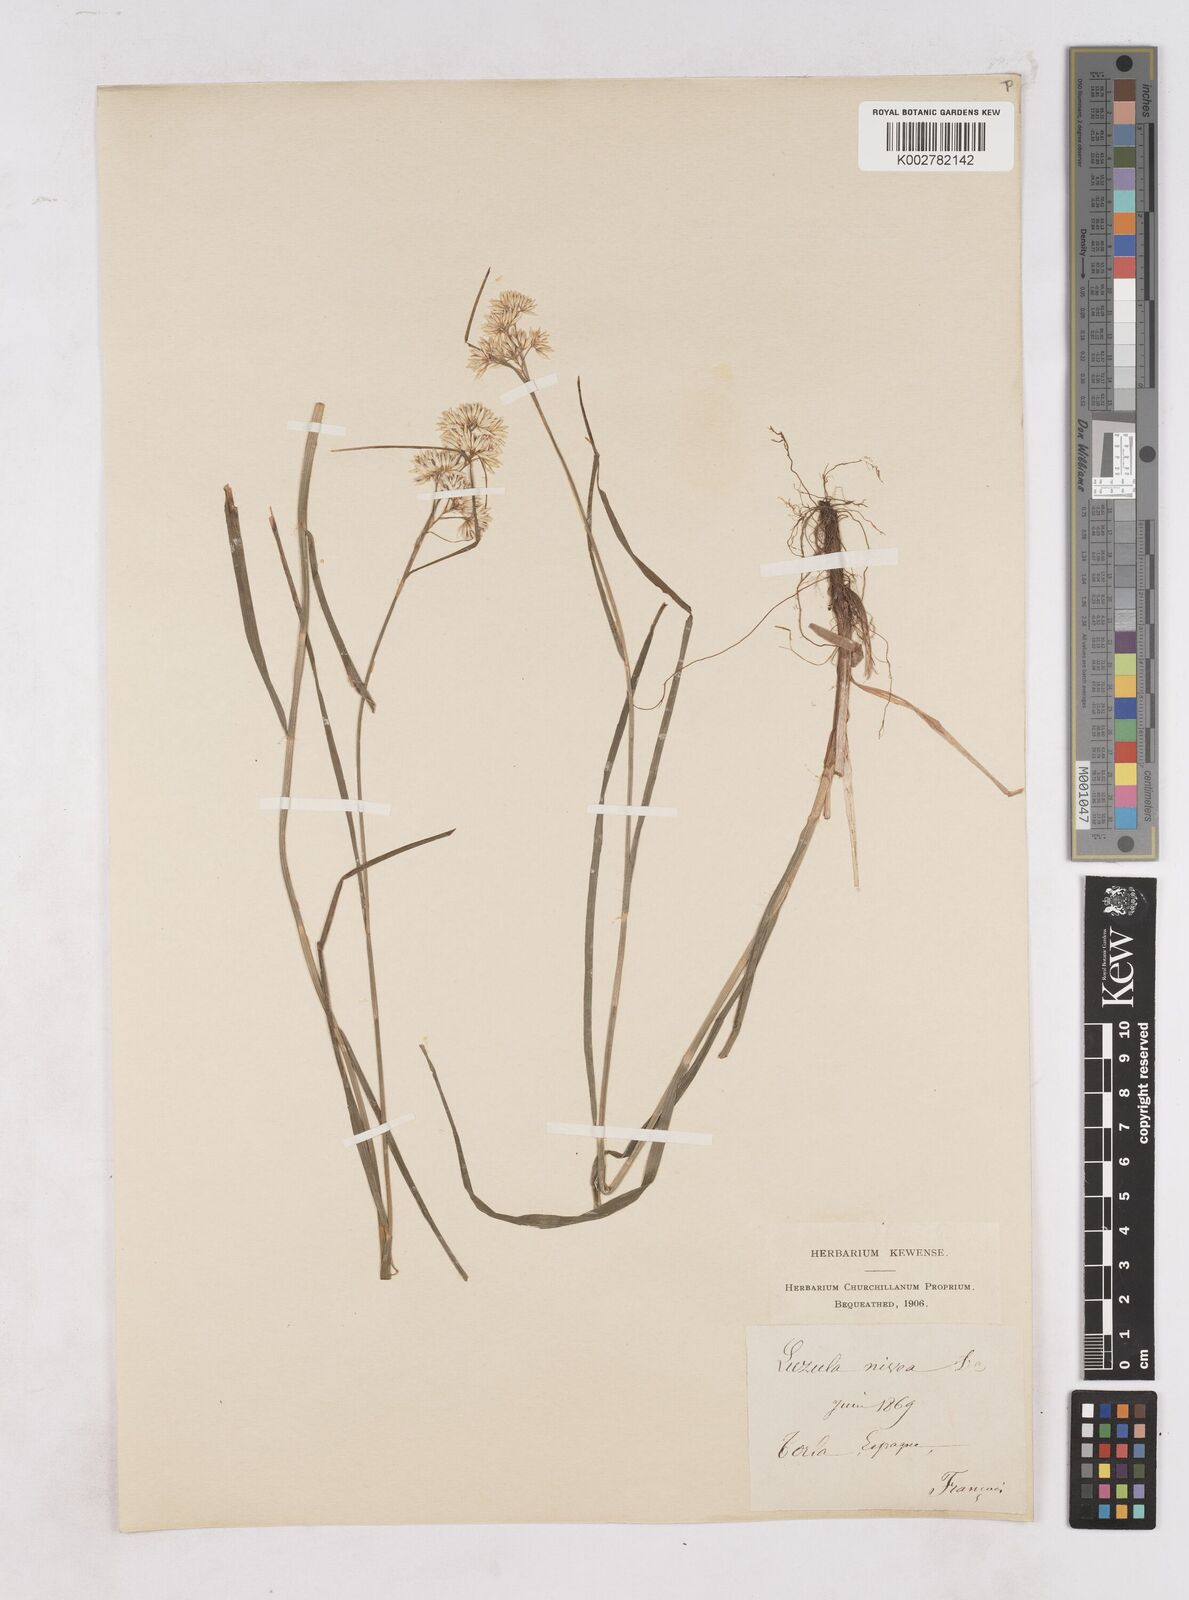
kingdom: Plantae
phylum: Tracheophyta
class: Liliopsida
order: Poales
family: Juncaceae
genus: Luzula
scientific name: Luzula nivea
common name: Snow-white wood-rush
